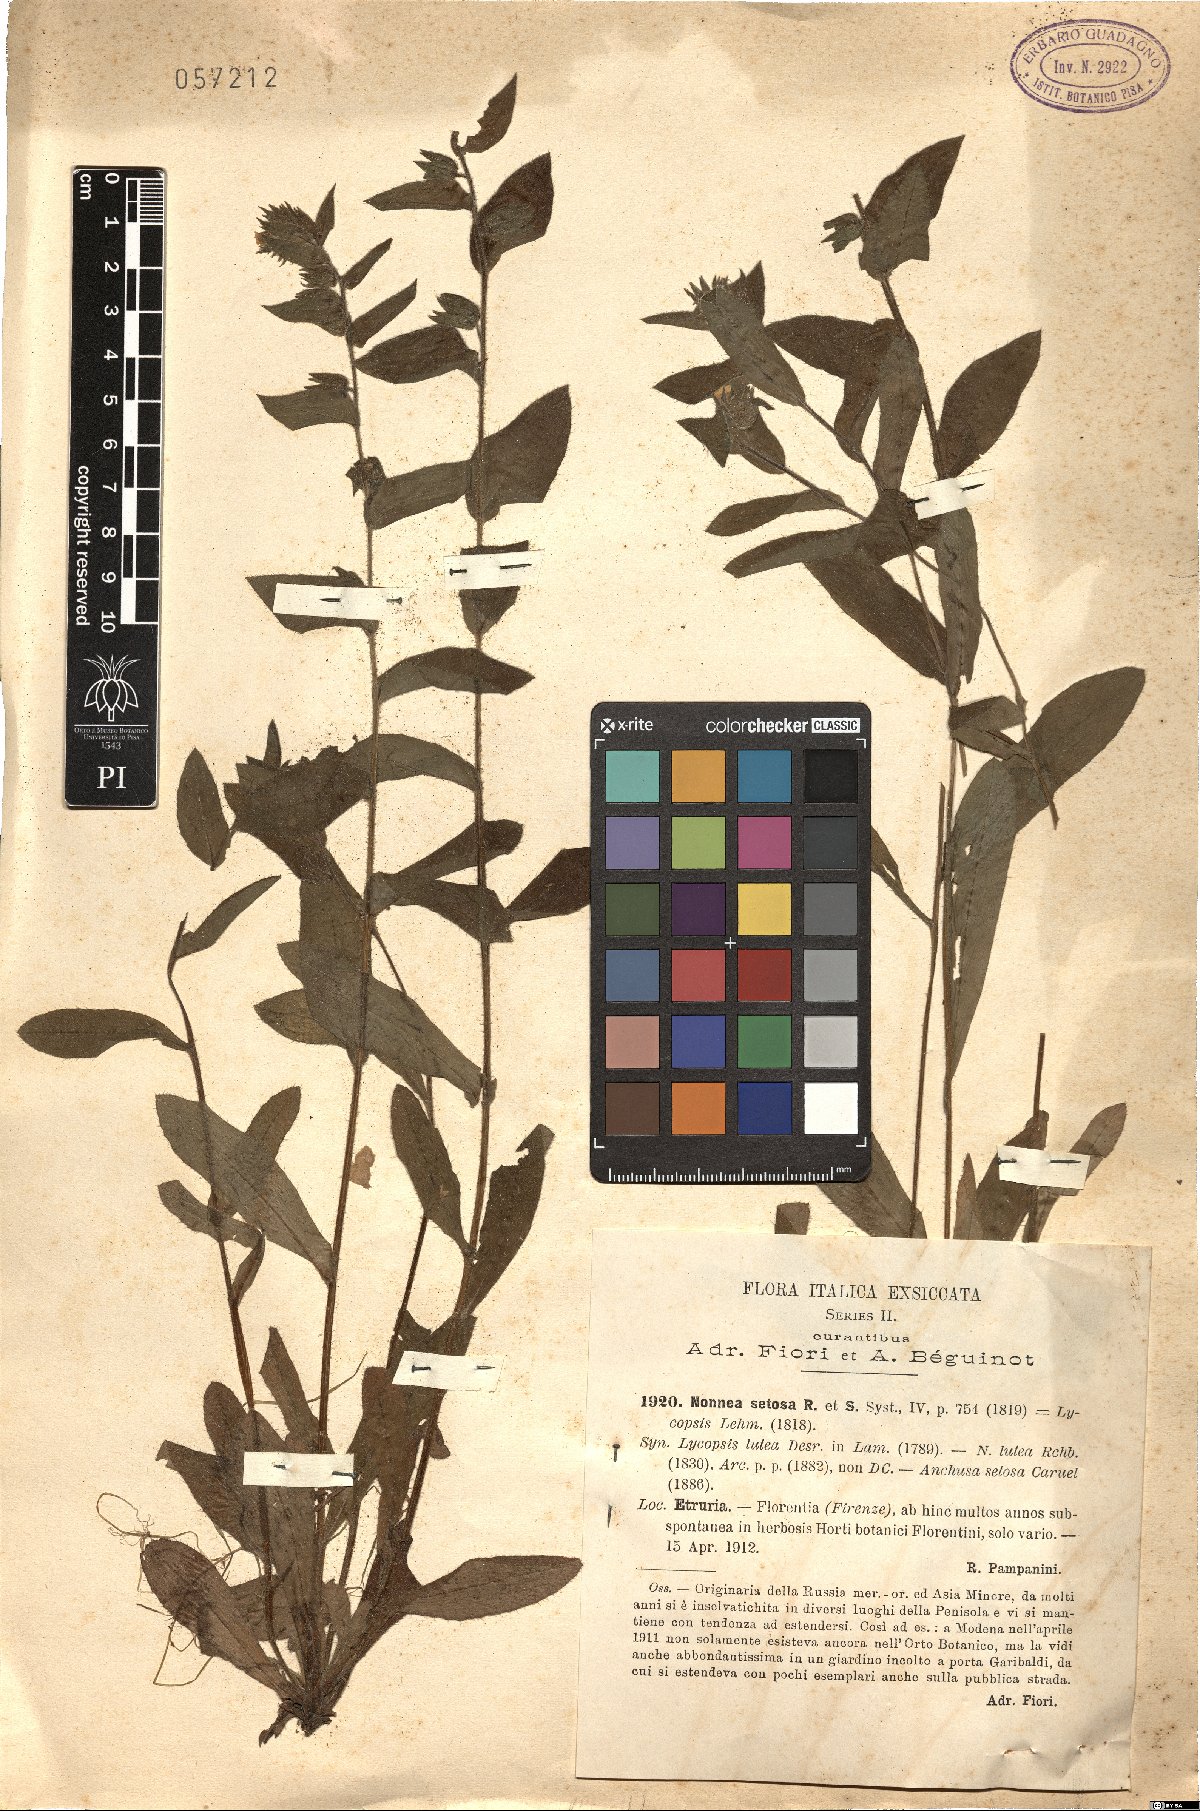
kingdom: Plantae
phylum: Tracheophyta
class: Magnoliopsida
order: Boraginales
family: Boraginaceae
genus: Nonea
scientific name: Nonea setosa
